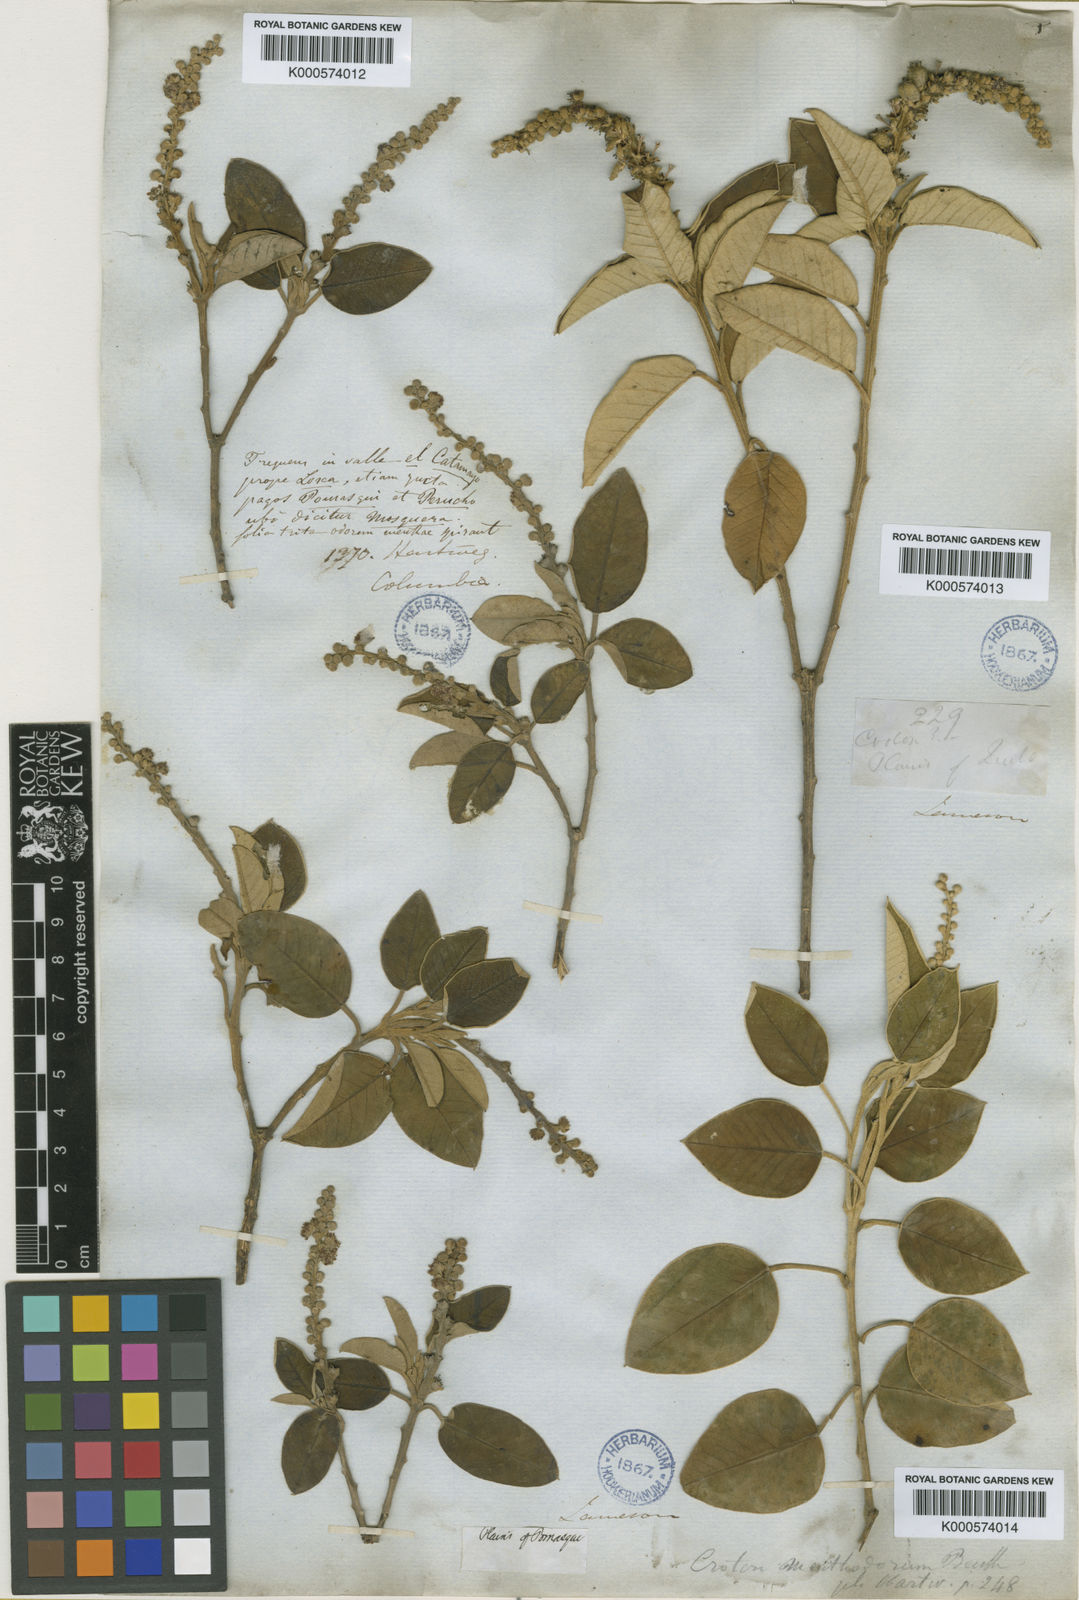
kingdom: Plantae
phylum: Tracheophyta
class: Magnoliopsida
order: Malpighiales
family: Euphorbiaceae
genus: Croton
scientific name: Croton menthodorus
